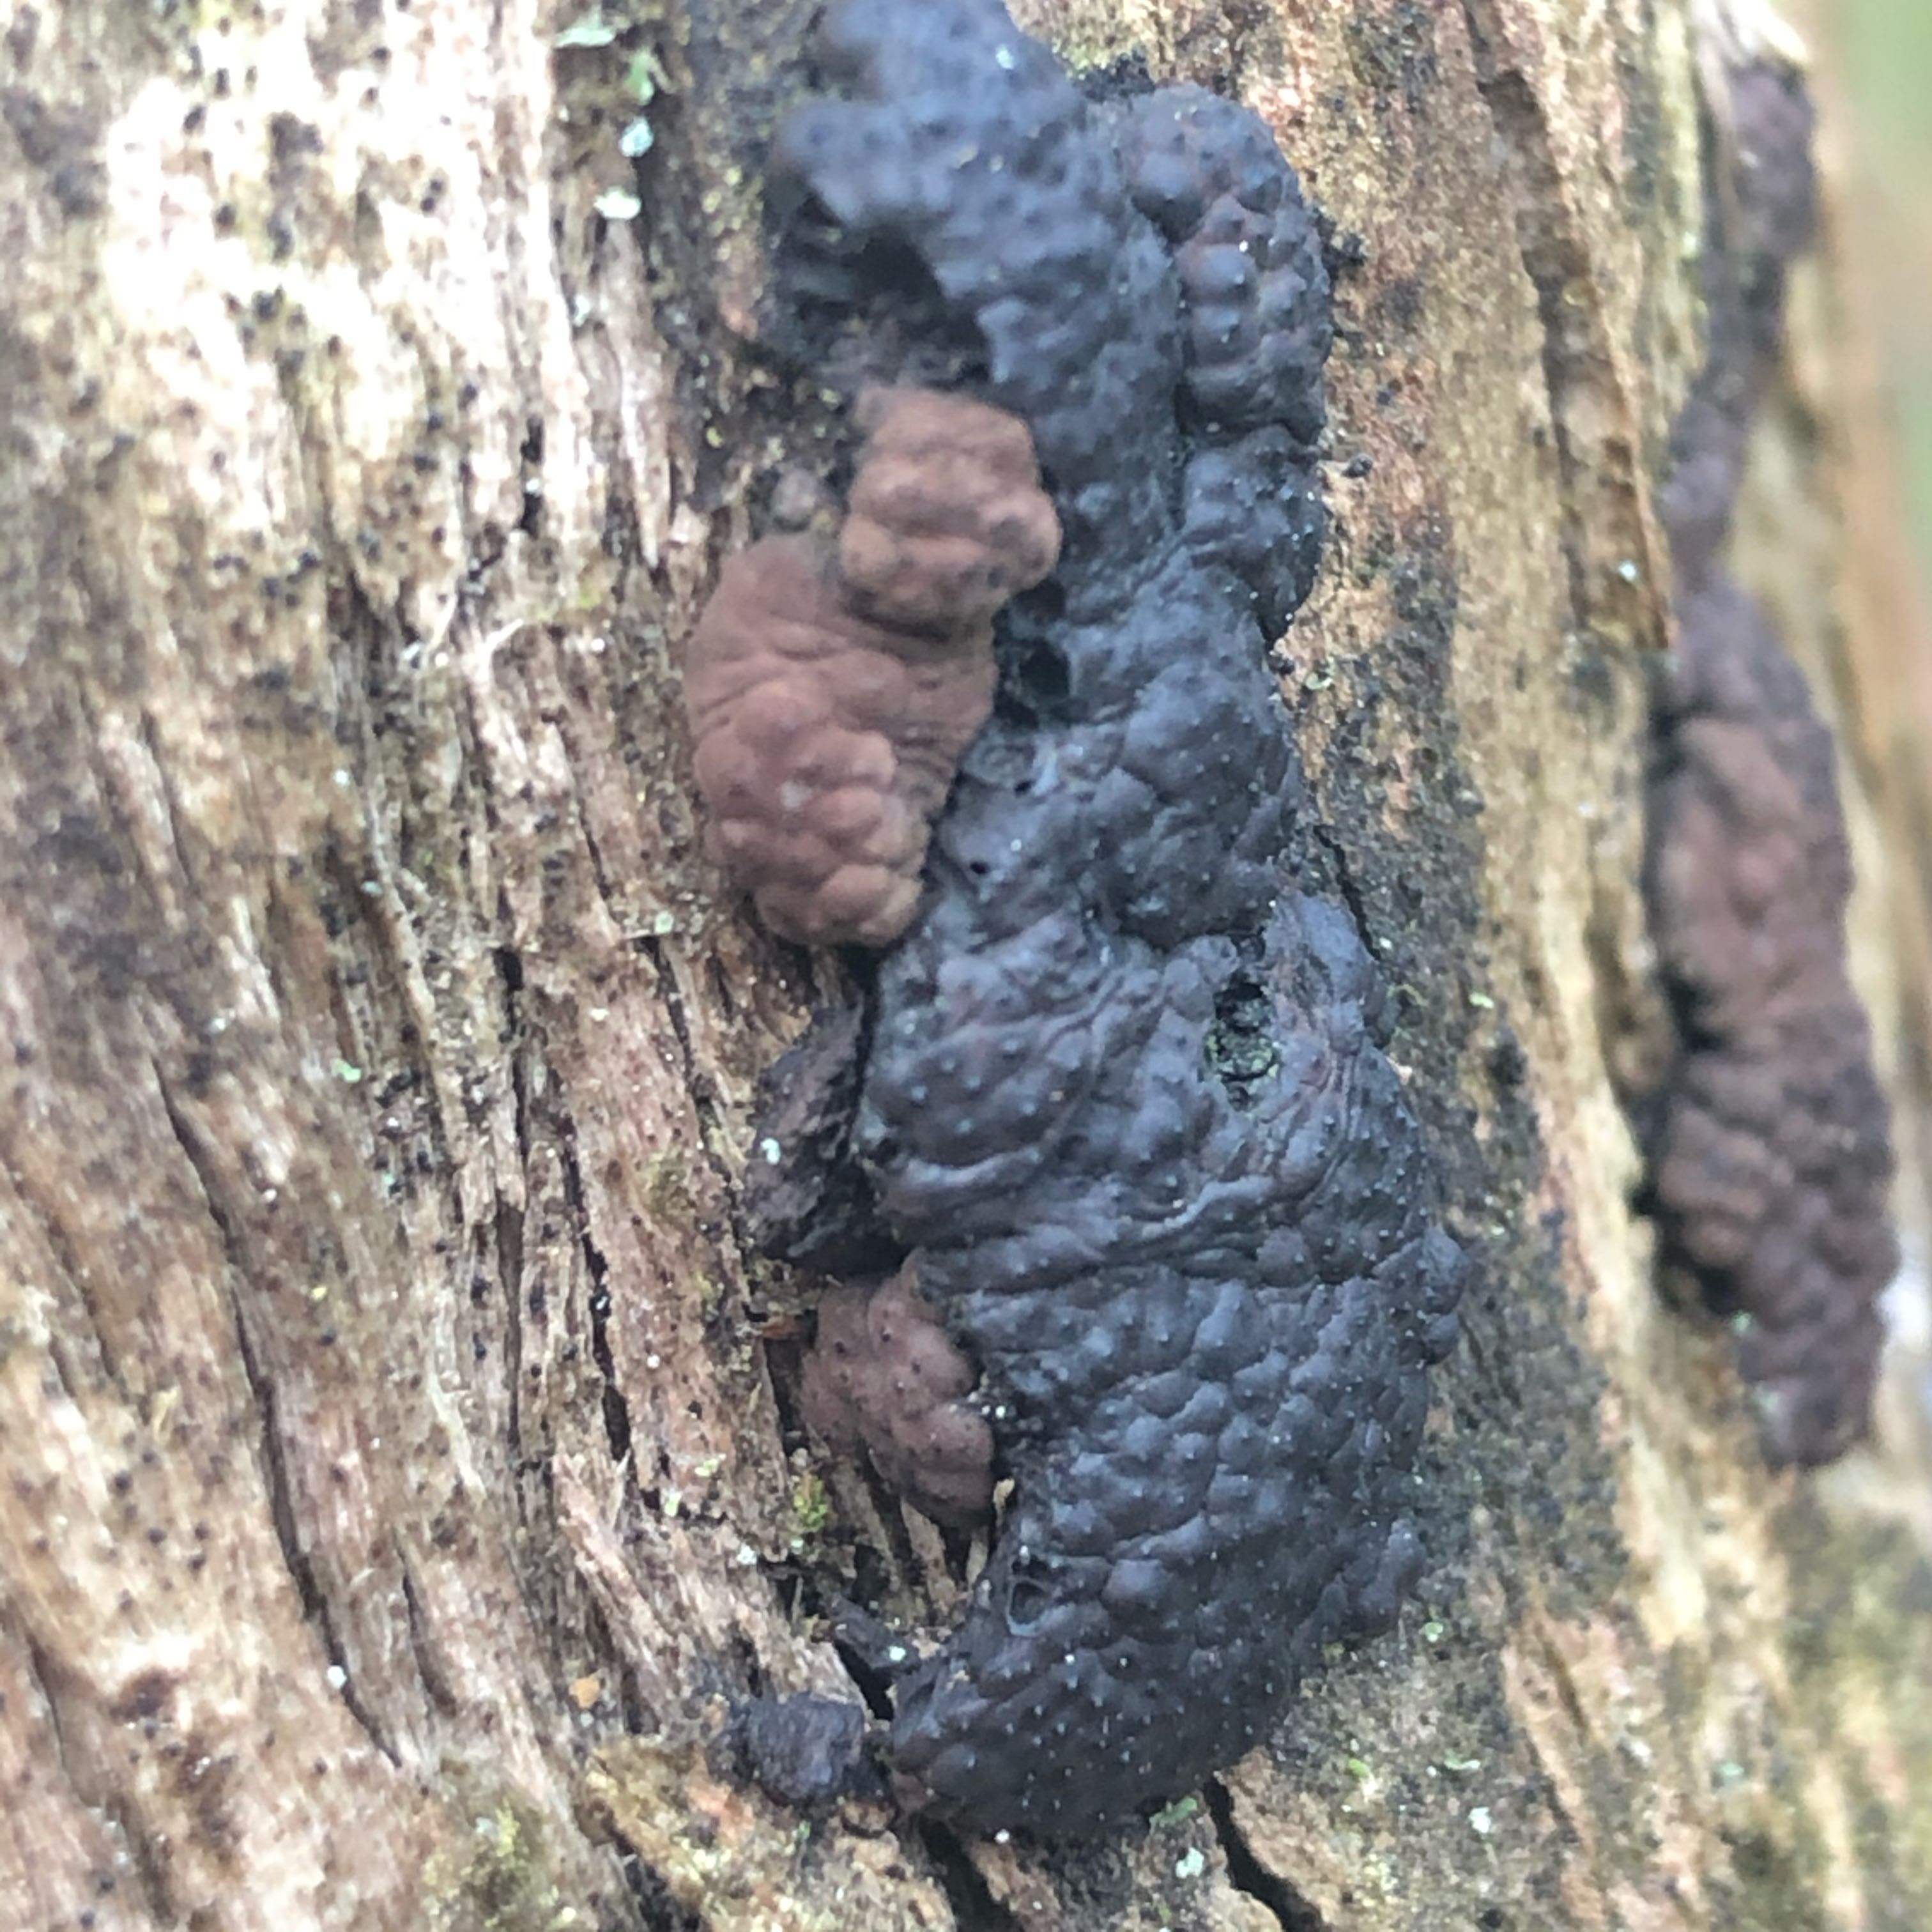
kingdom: Fungi
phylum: Ascomycota
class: Sordariomycetes
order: Xylariales
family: Hypoxylaceae
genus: Jackrogersella
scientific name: Jackrogersella multiformis
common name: foranderlig kulbær
